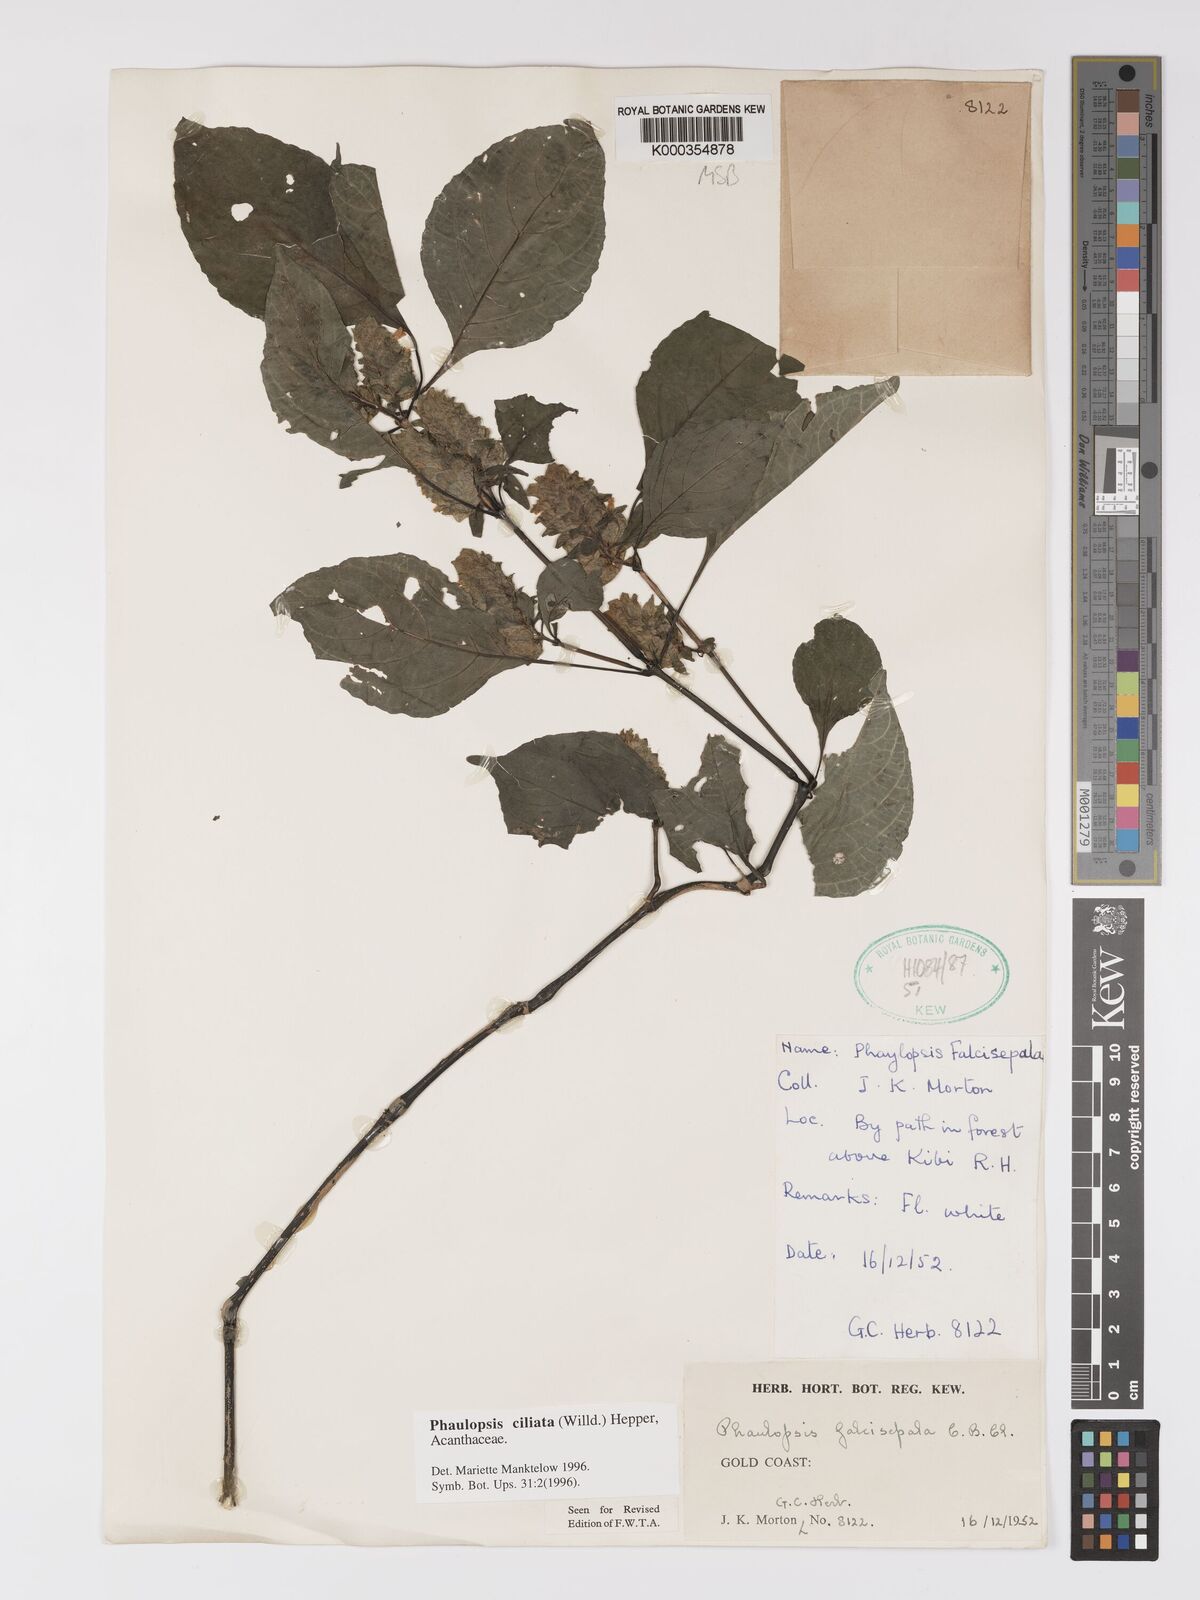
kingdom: Plantae
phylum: Tracheophyta
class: Magnoliopsida
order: Lamiales
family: Acanthaceae
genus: Phaulopsis
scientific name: Phaulopsis ciliata
